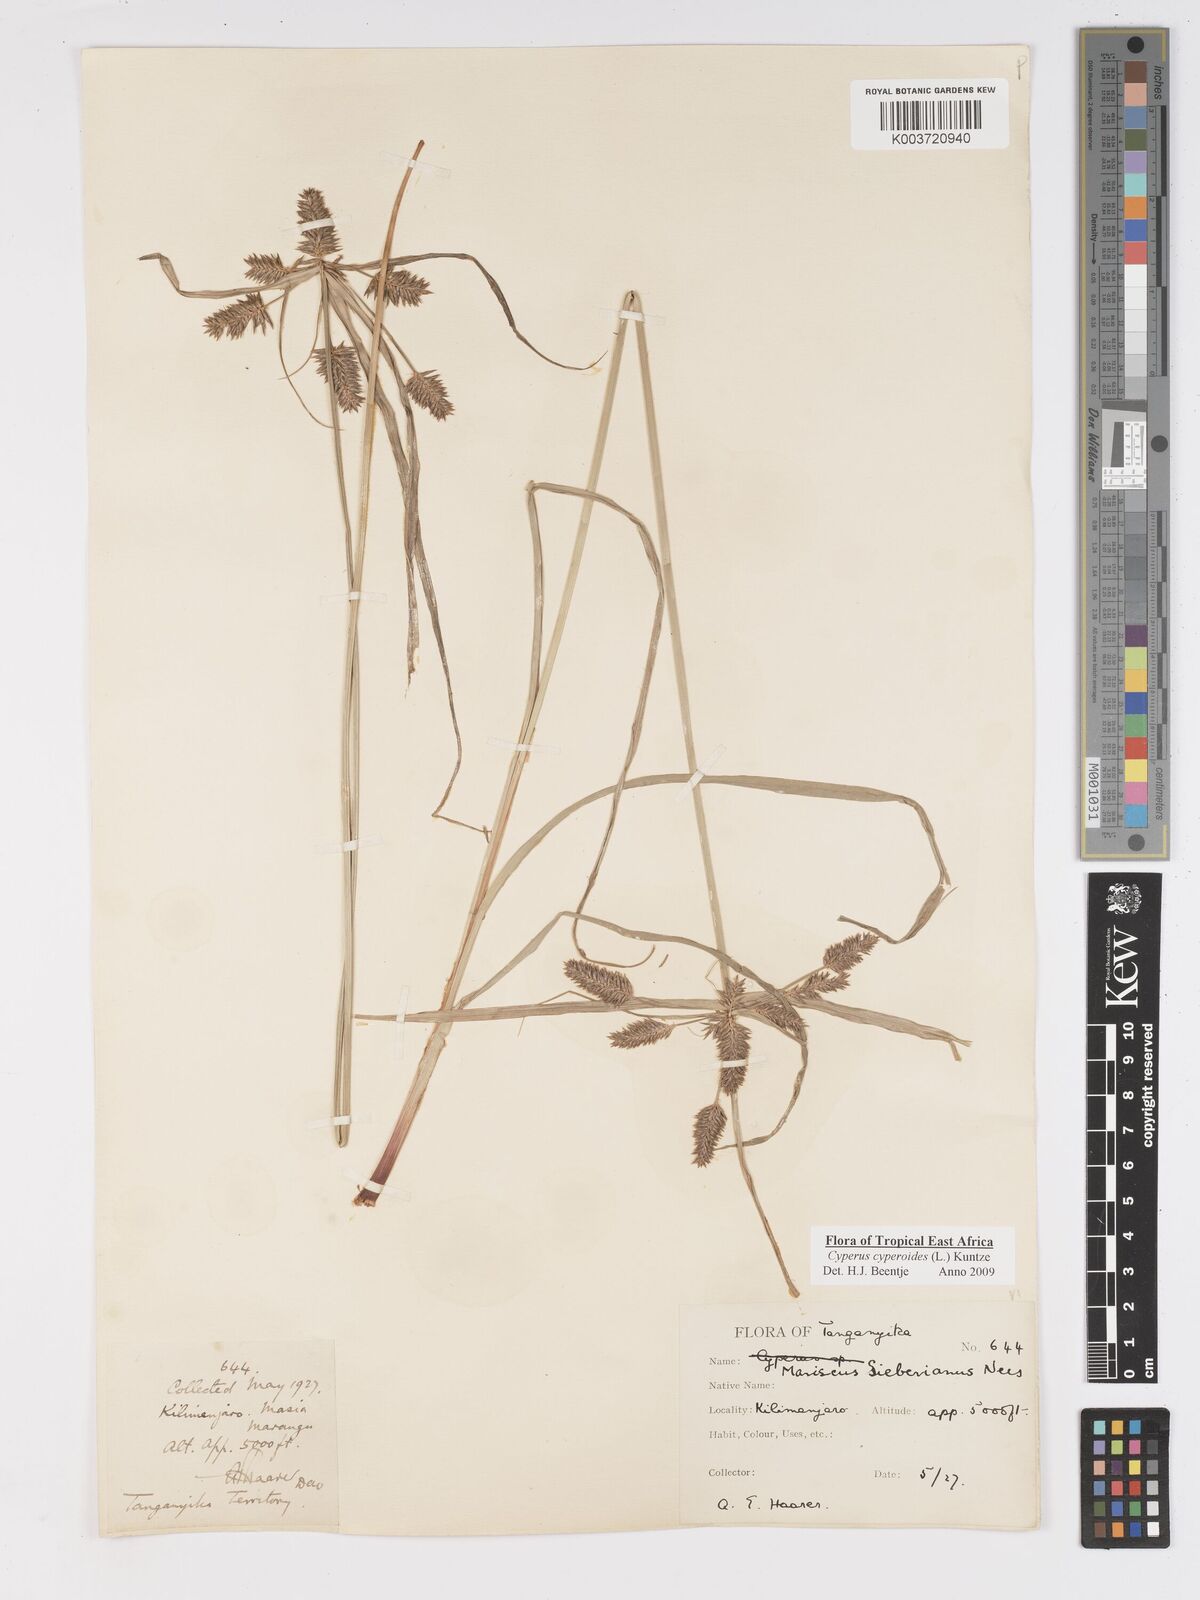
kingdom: Plantae
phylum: Tracheophyta
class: Liliopsida
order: Poales
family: Cyperaceae
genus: Cyperus
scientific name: Cyperus macrocarpus
